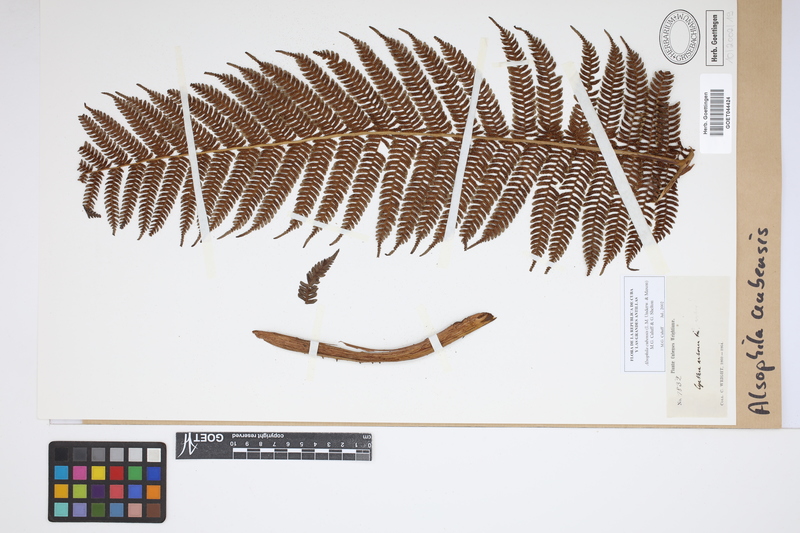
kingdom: Plantae
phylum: Tracheophyta
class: Polypodiopsida
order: Cyatheales
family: Cyatheaceae
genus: Alsophila
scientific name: Alsophila cubensis
